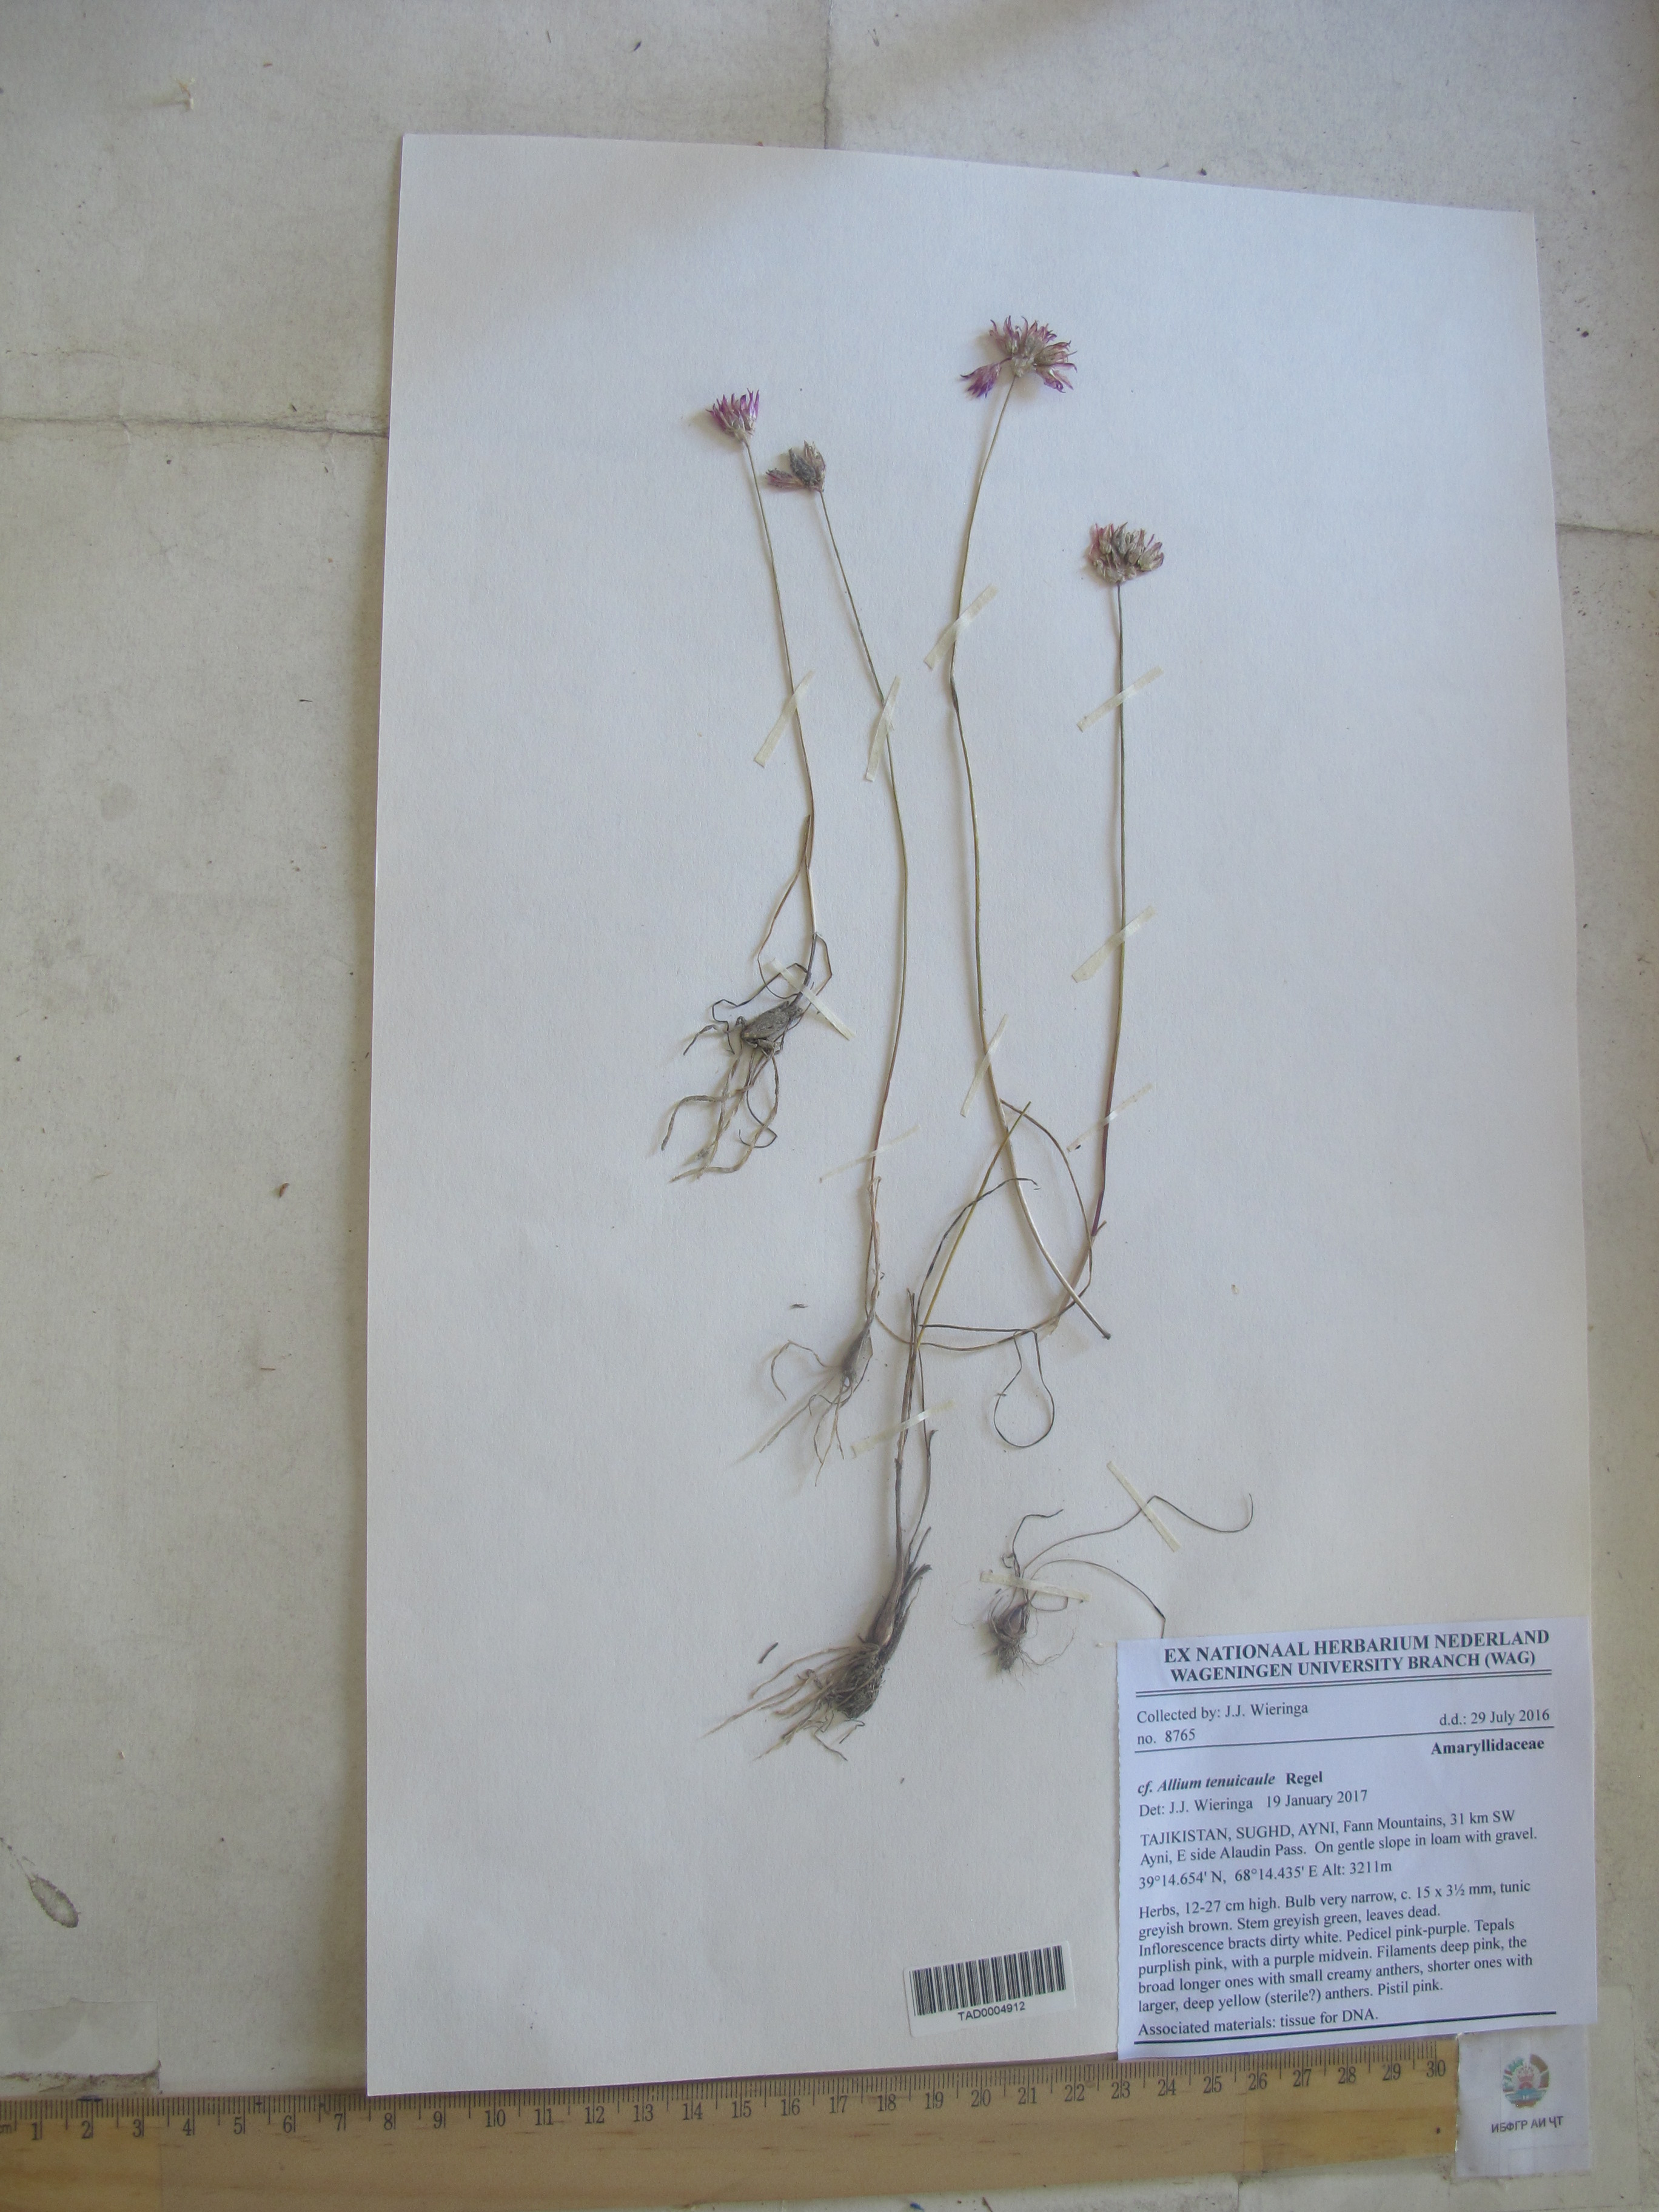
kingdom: Plantae
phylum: Tracheophyta
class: Liliopsida
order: Asparagales
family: Amaryllidaceae
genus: Allium
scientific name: Allium tenuicaule
